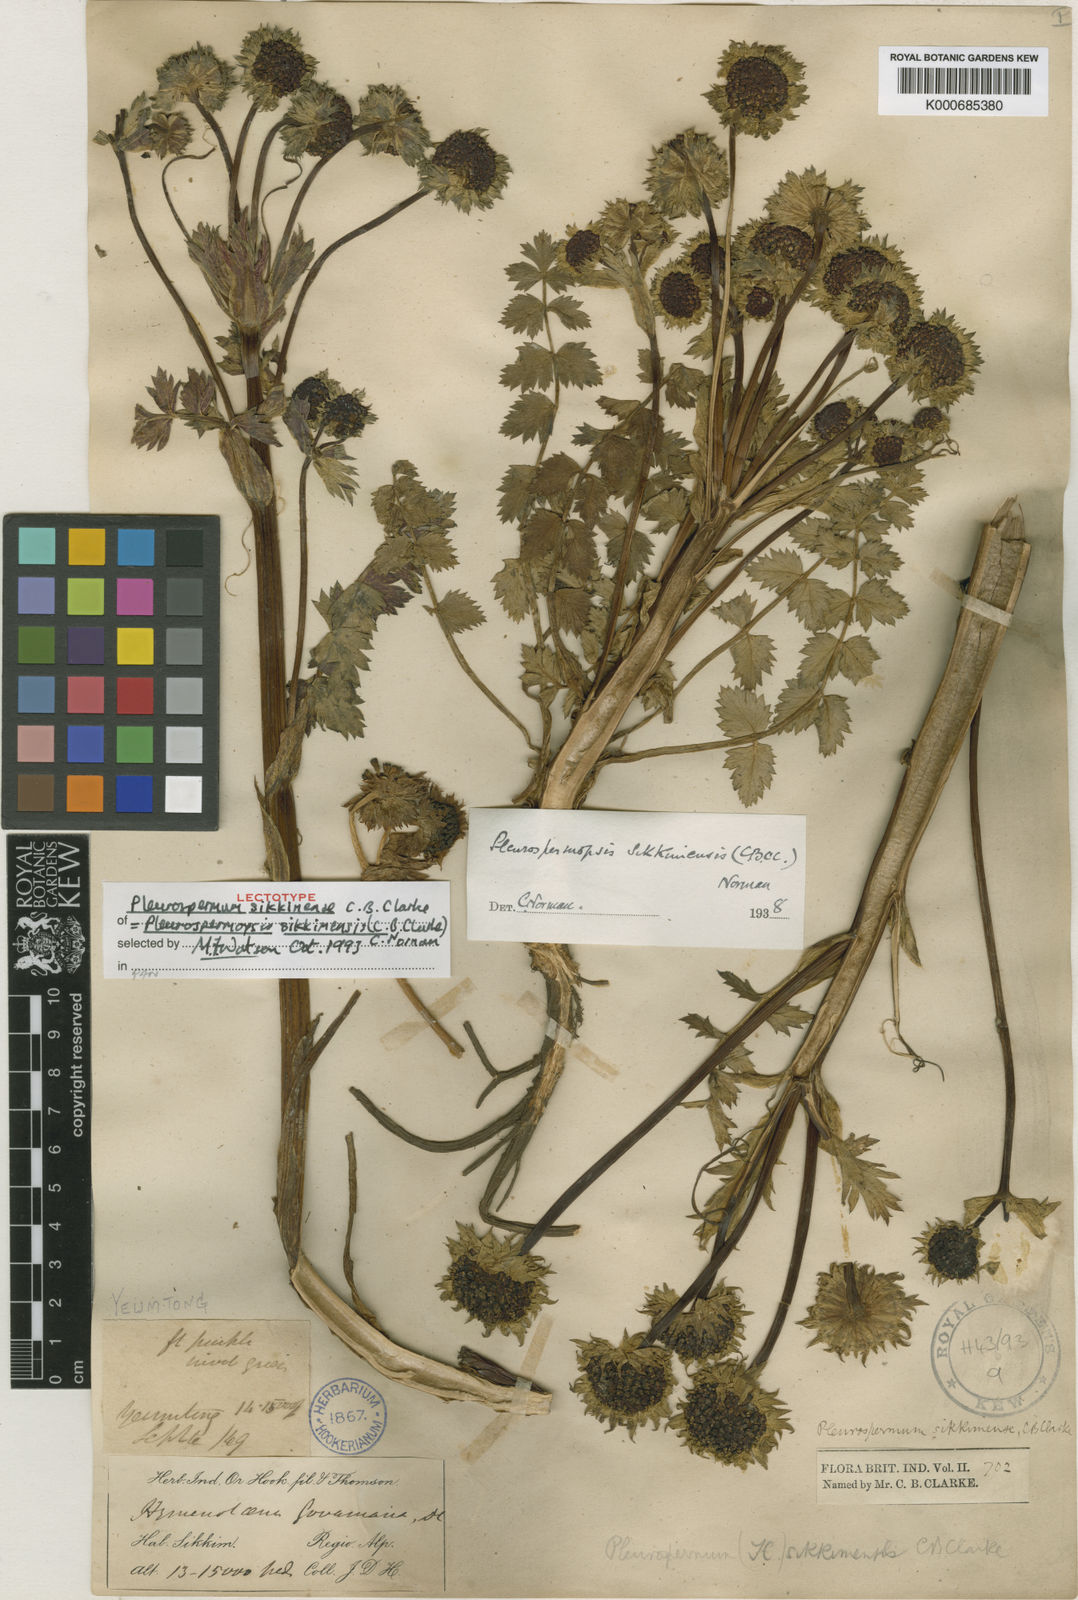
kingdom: Plantae
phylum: Tracheophyta
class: Magnoliopsida
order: Apiales
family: Apiaceae
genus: Pleurospermopsis
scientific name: Pleurospermopsis sikkimensis
